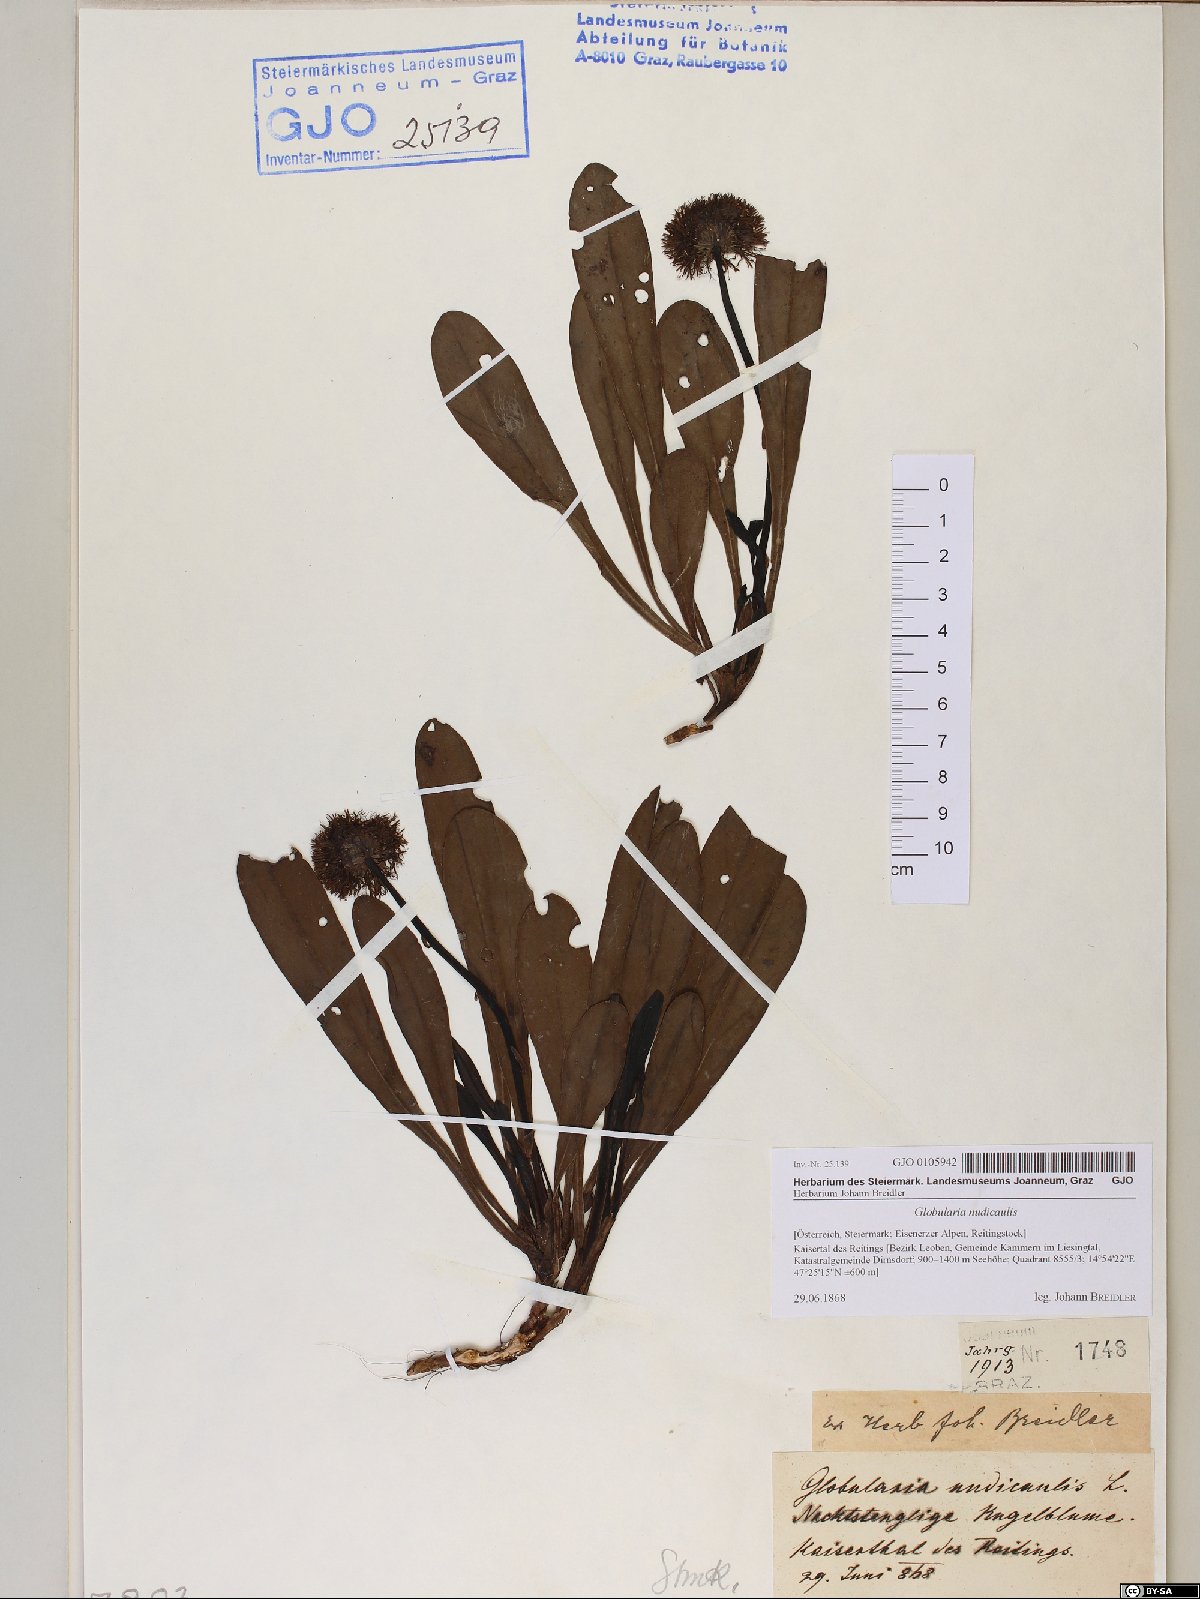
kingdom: Plantae
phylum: Tracheophyta
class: Magnoliopsida
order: Lamiales
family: Plantaginaceae
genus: Globularia
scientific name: Globularia nudicaulis
